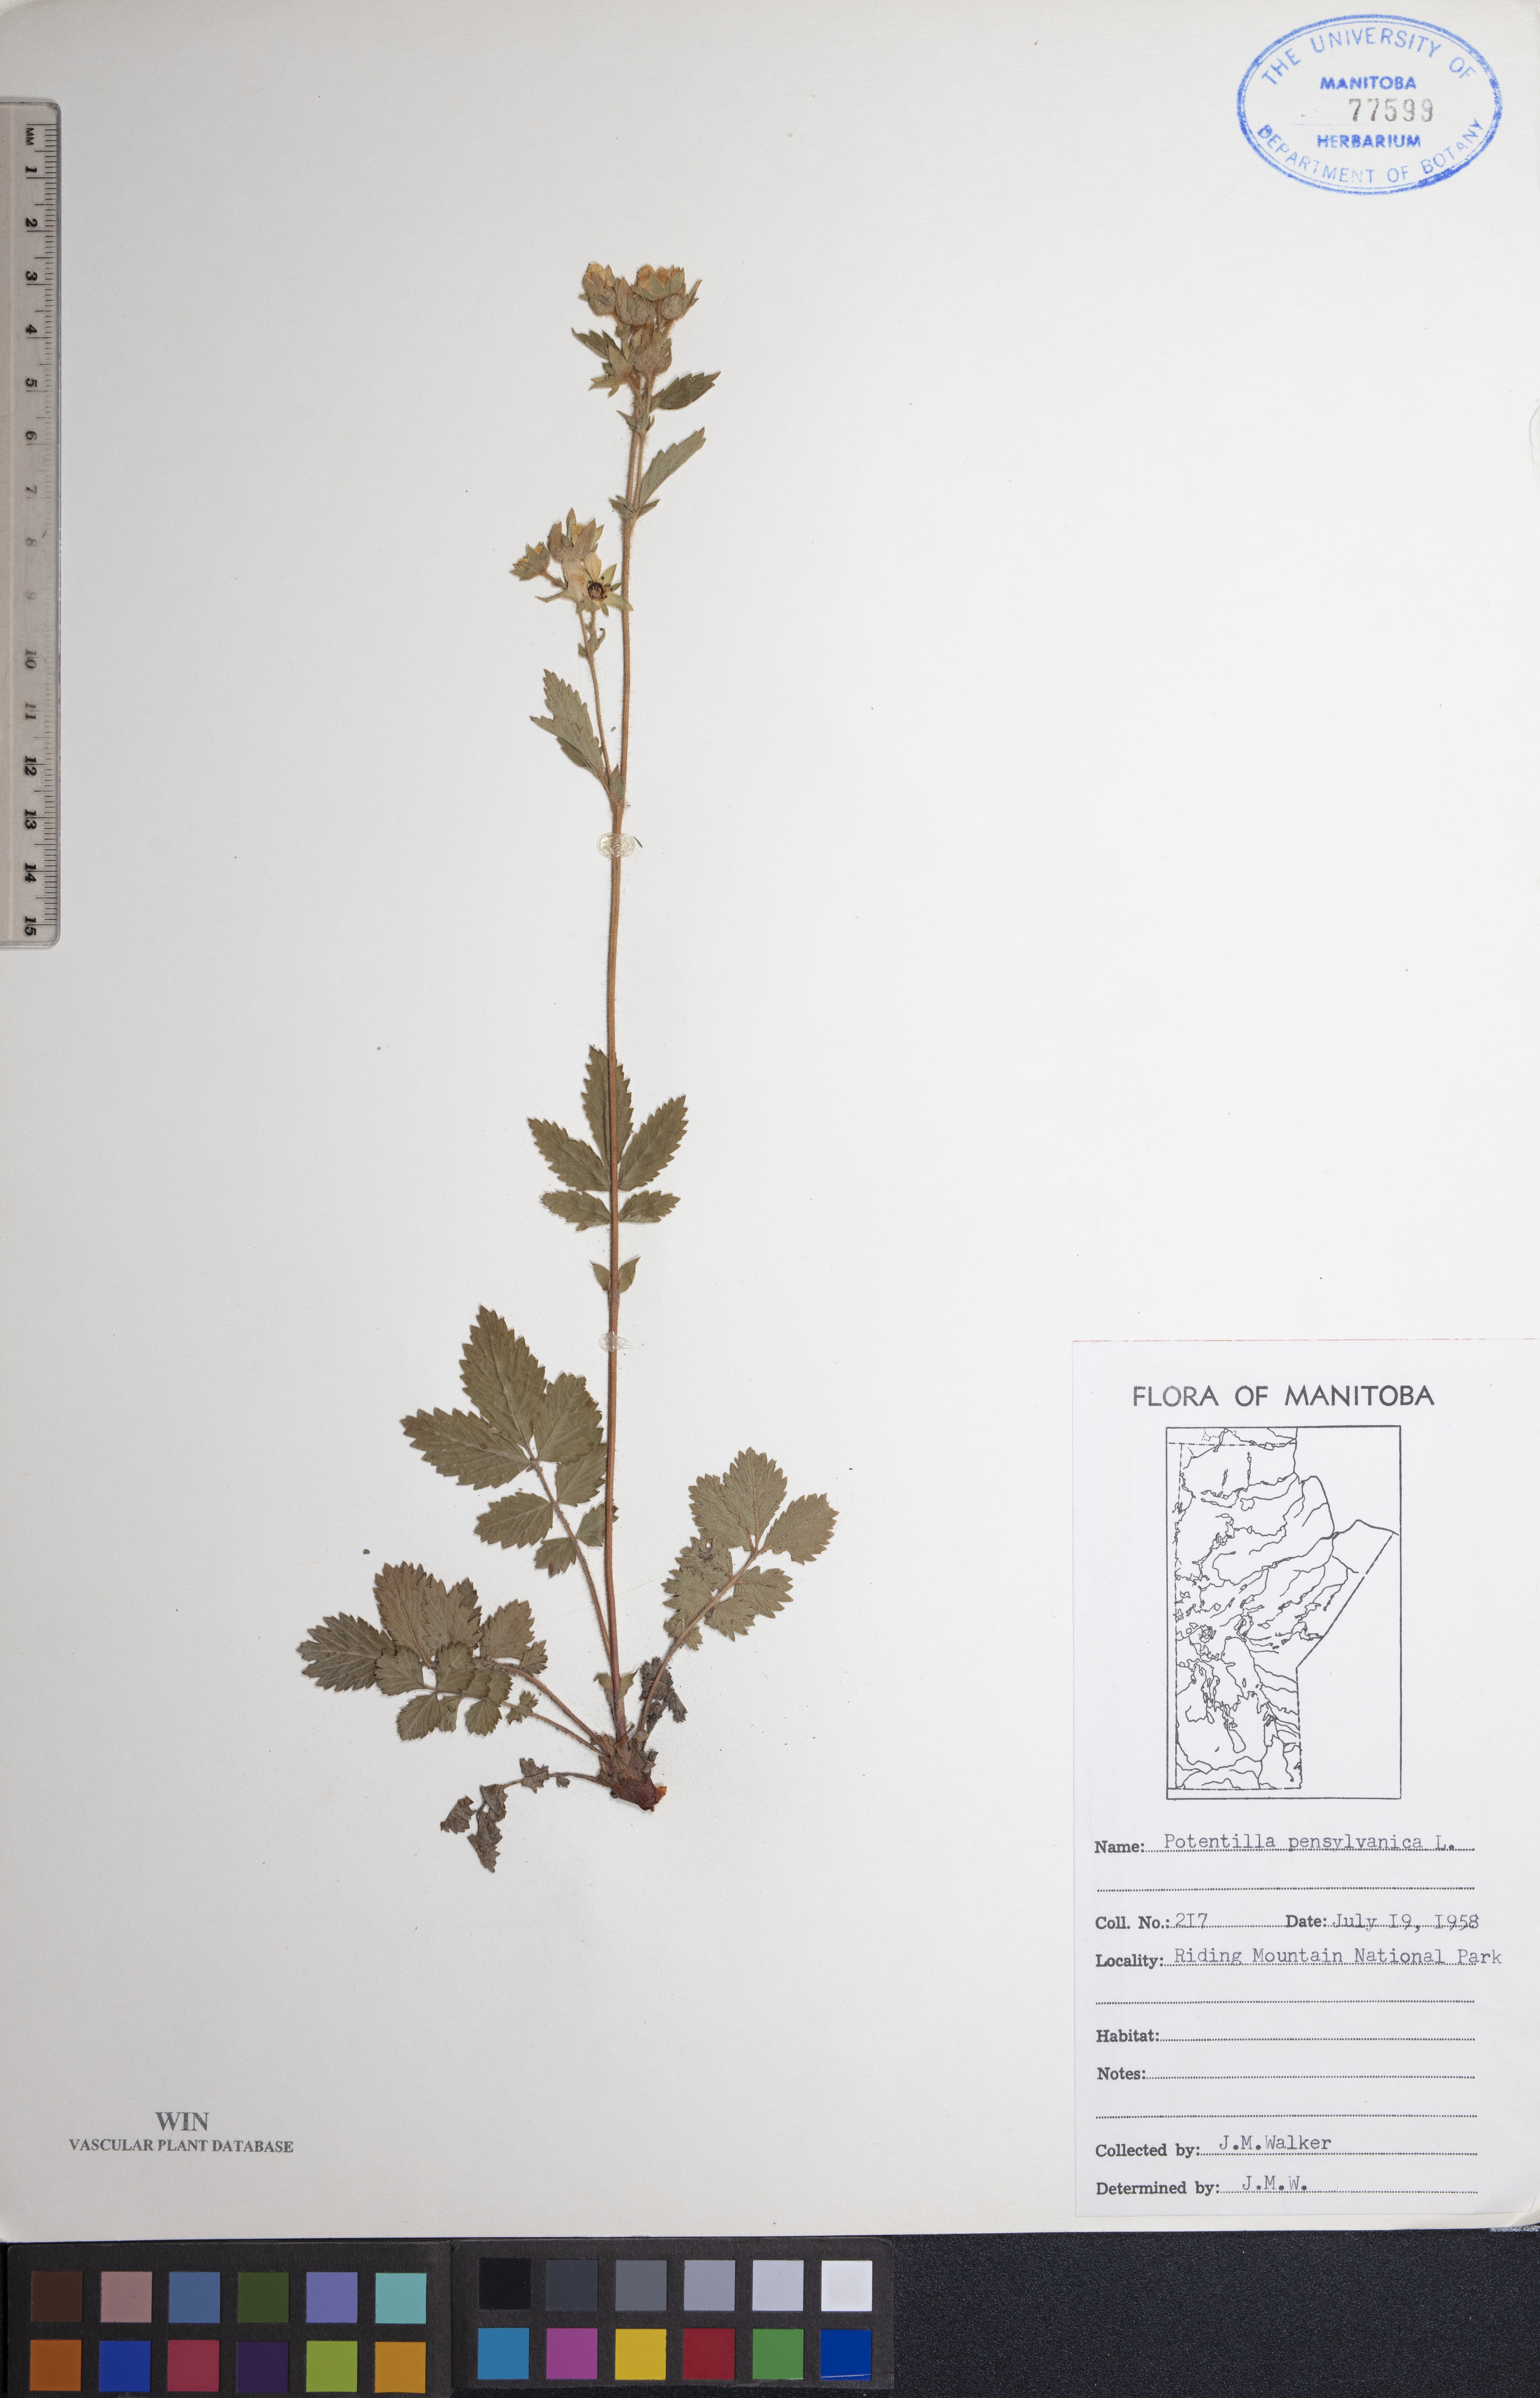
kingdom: Plantae
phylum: Tracheophyta
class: Magnoliopsida
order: Rosales
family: Rosaceae
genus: Potentilla
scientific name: Potentilla pensylvanica
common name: Pennsylvania cinquefoil
